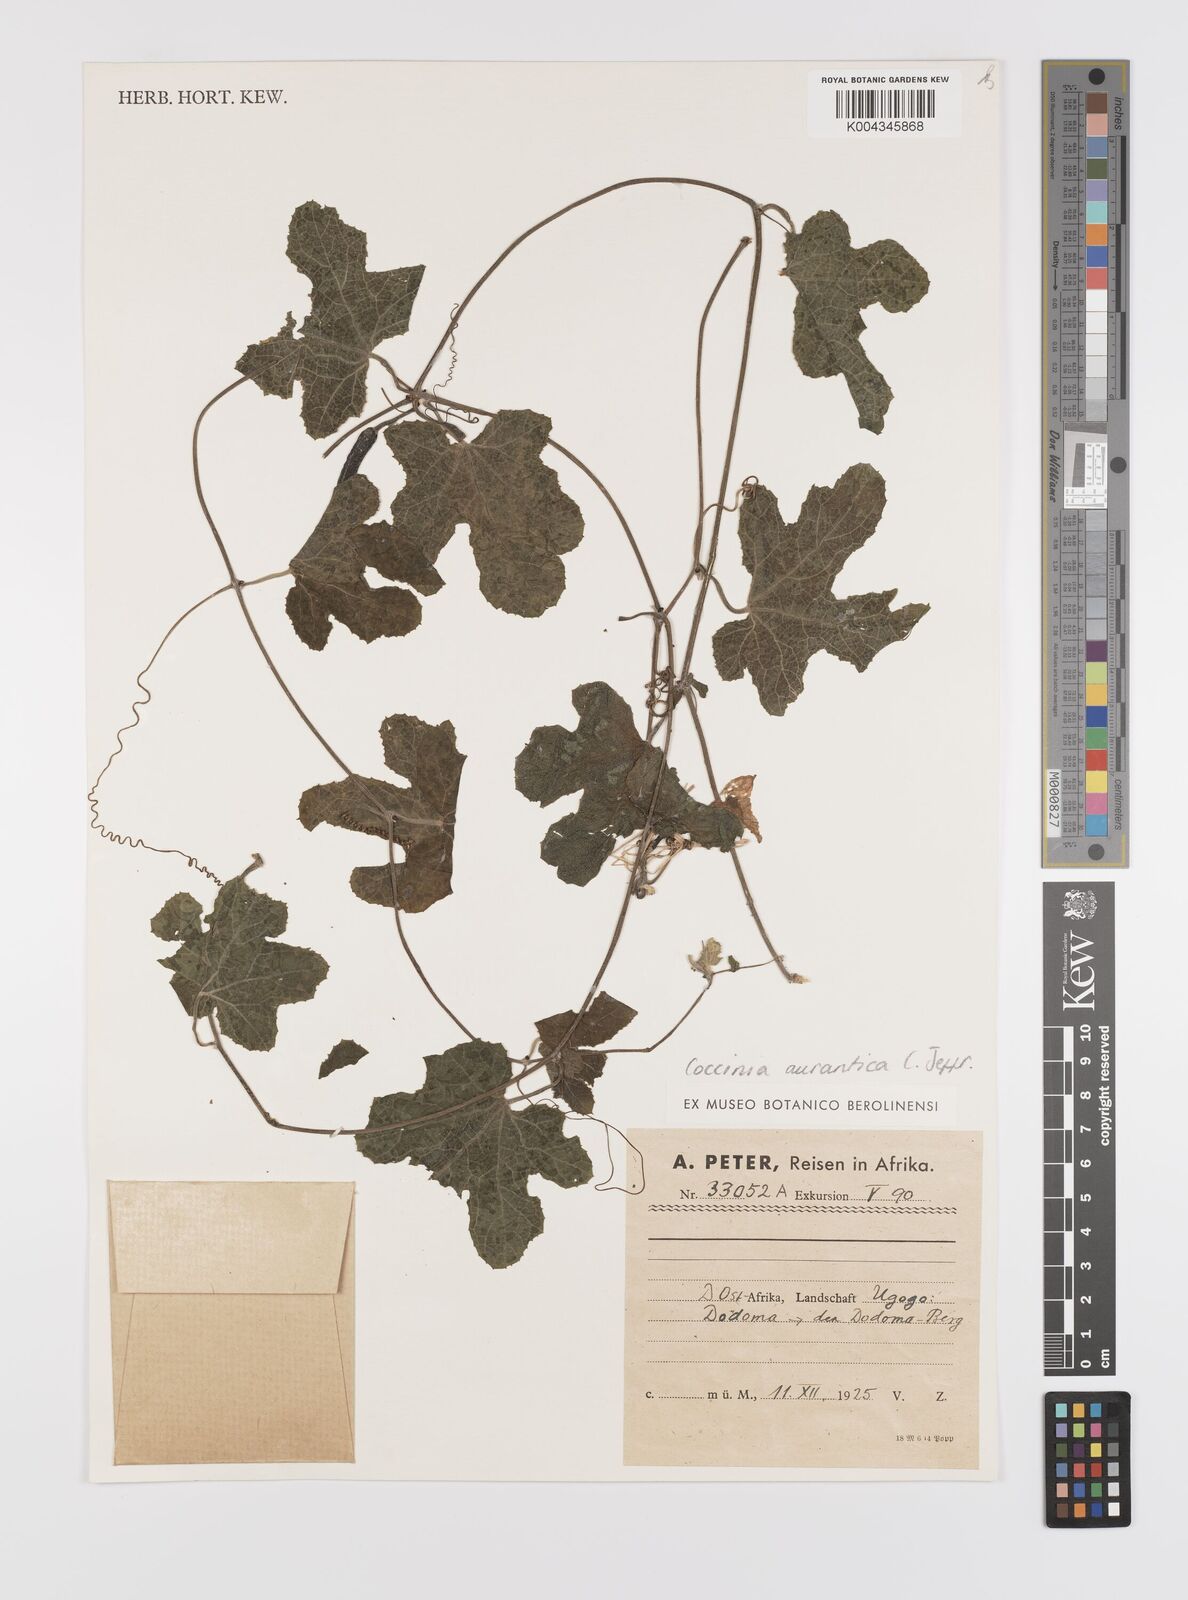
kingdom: Plantae
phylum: Tracheophyta
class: Magnoliopsida
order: Cucurbitales
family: Cucurbitaceae
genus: Coccinia
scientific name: Coccinia adoensis
